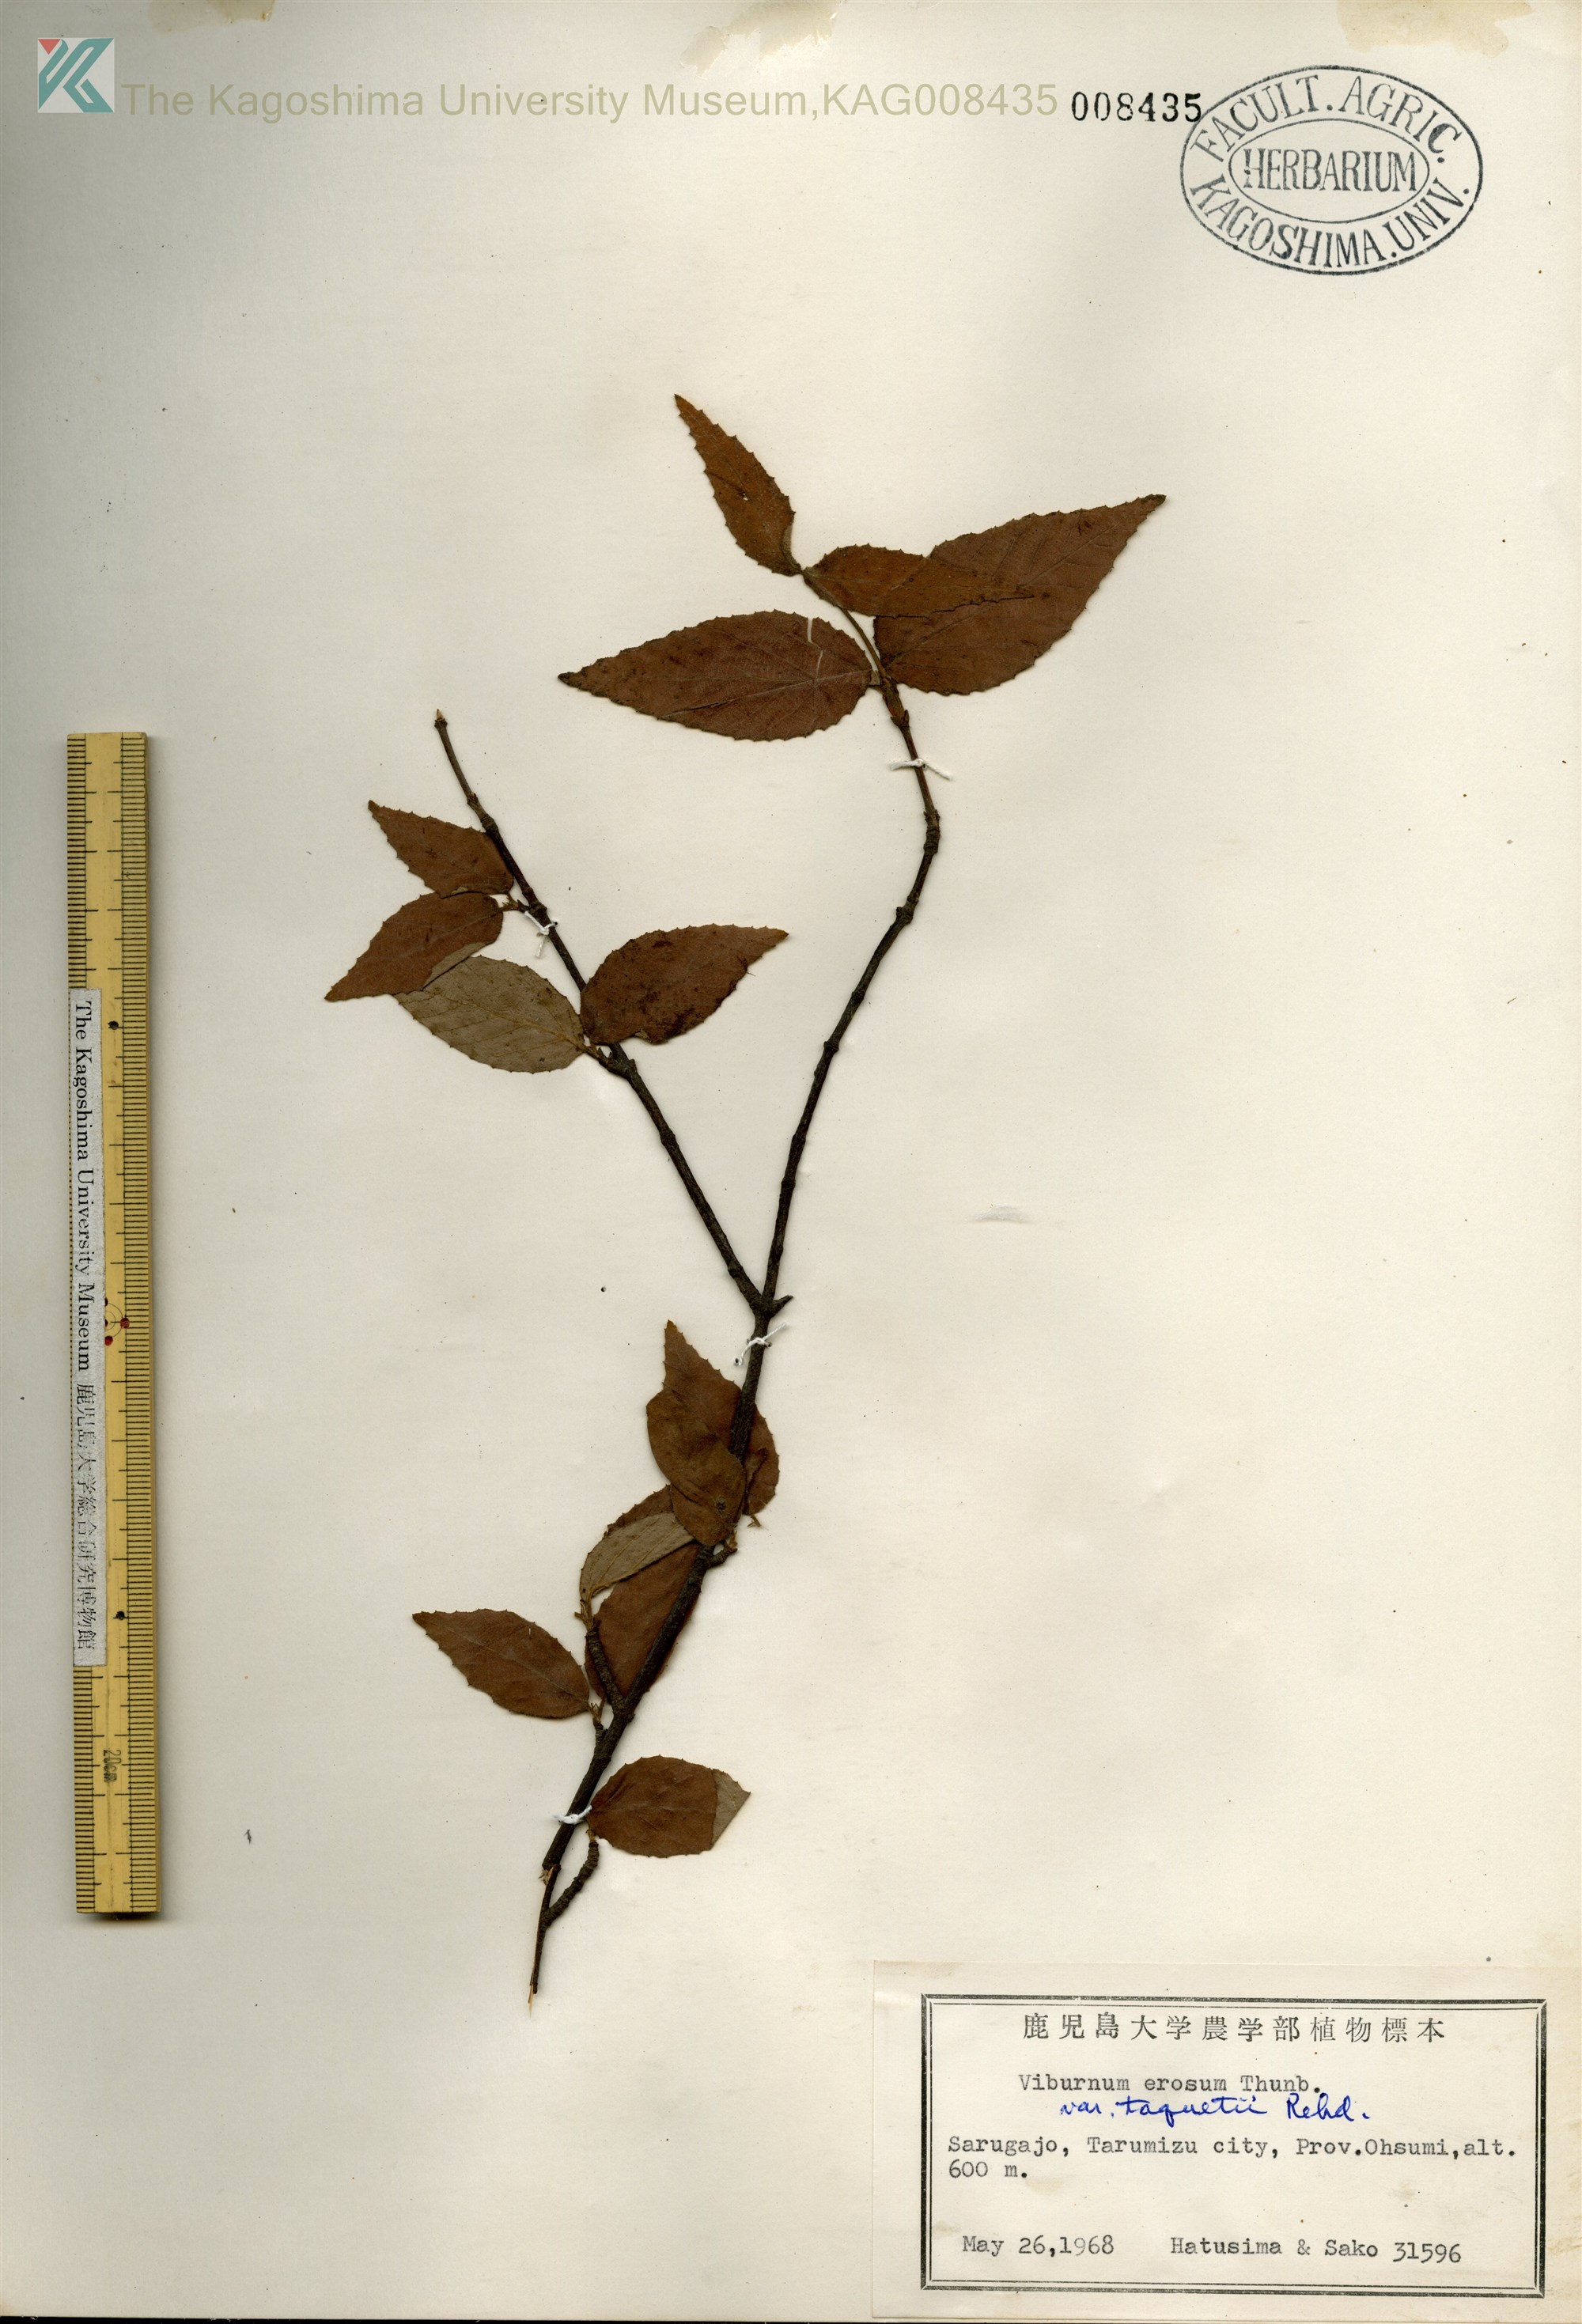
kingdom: Plantae
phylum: Tracheophyta
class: Magnoliopsida
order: Dipsacales
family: Viburnaceae
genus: Viburnum
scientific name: Viburnum erosum
